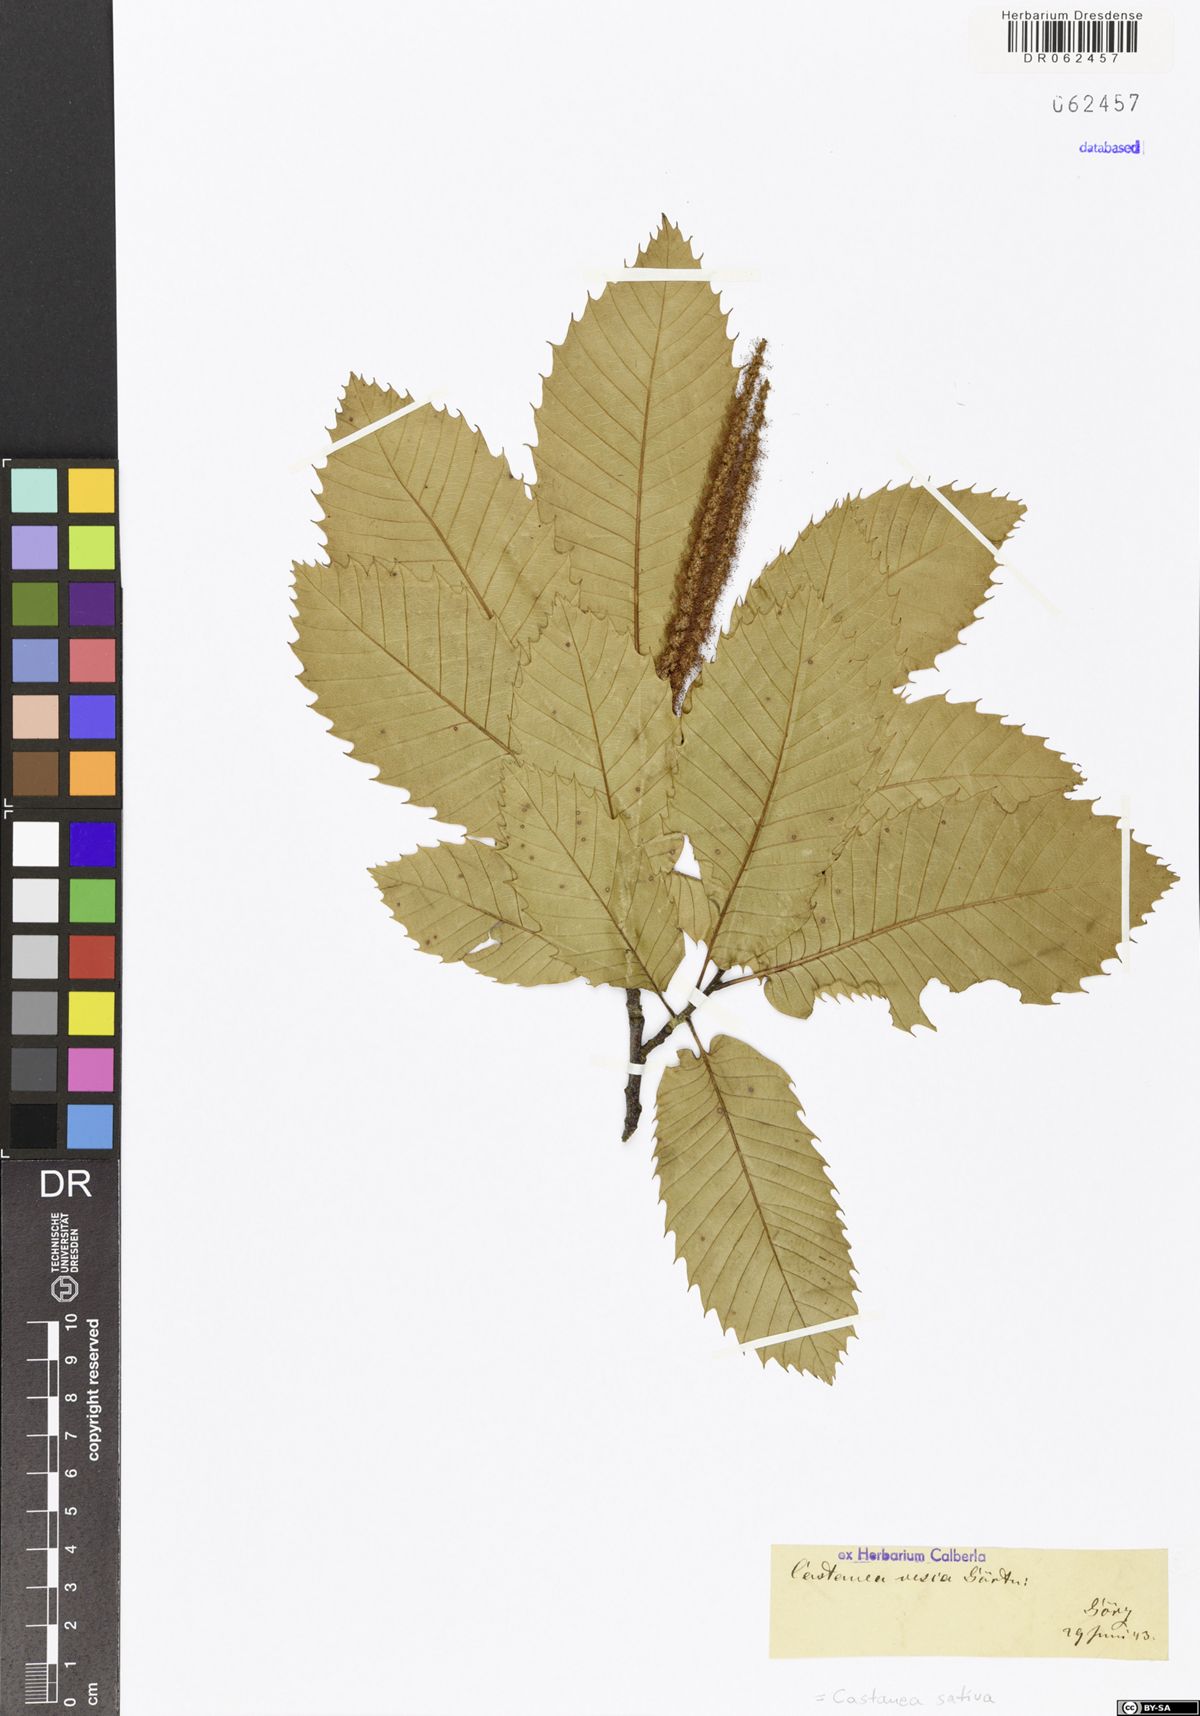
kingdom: Plantae
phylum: Tracheophyta
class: Magnoliopsida
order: Fagales
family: Fagaceae
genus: Castanea
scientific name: Castanea sativa
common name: Sweet chestnut
